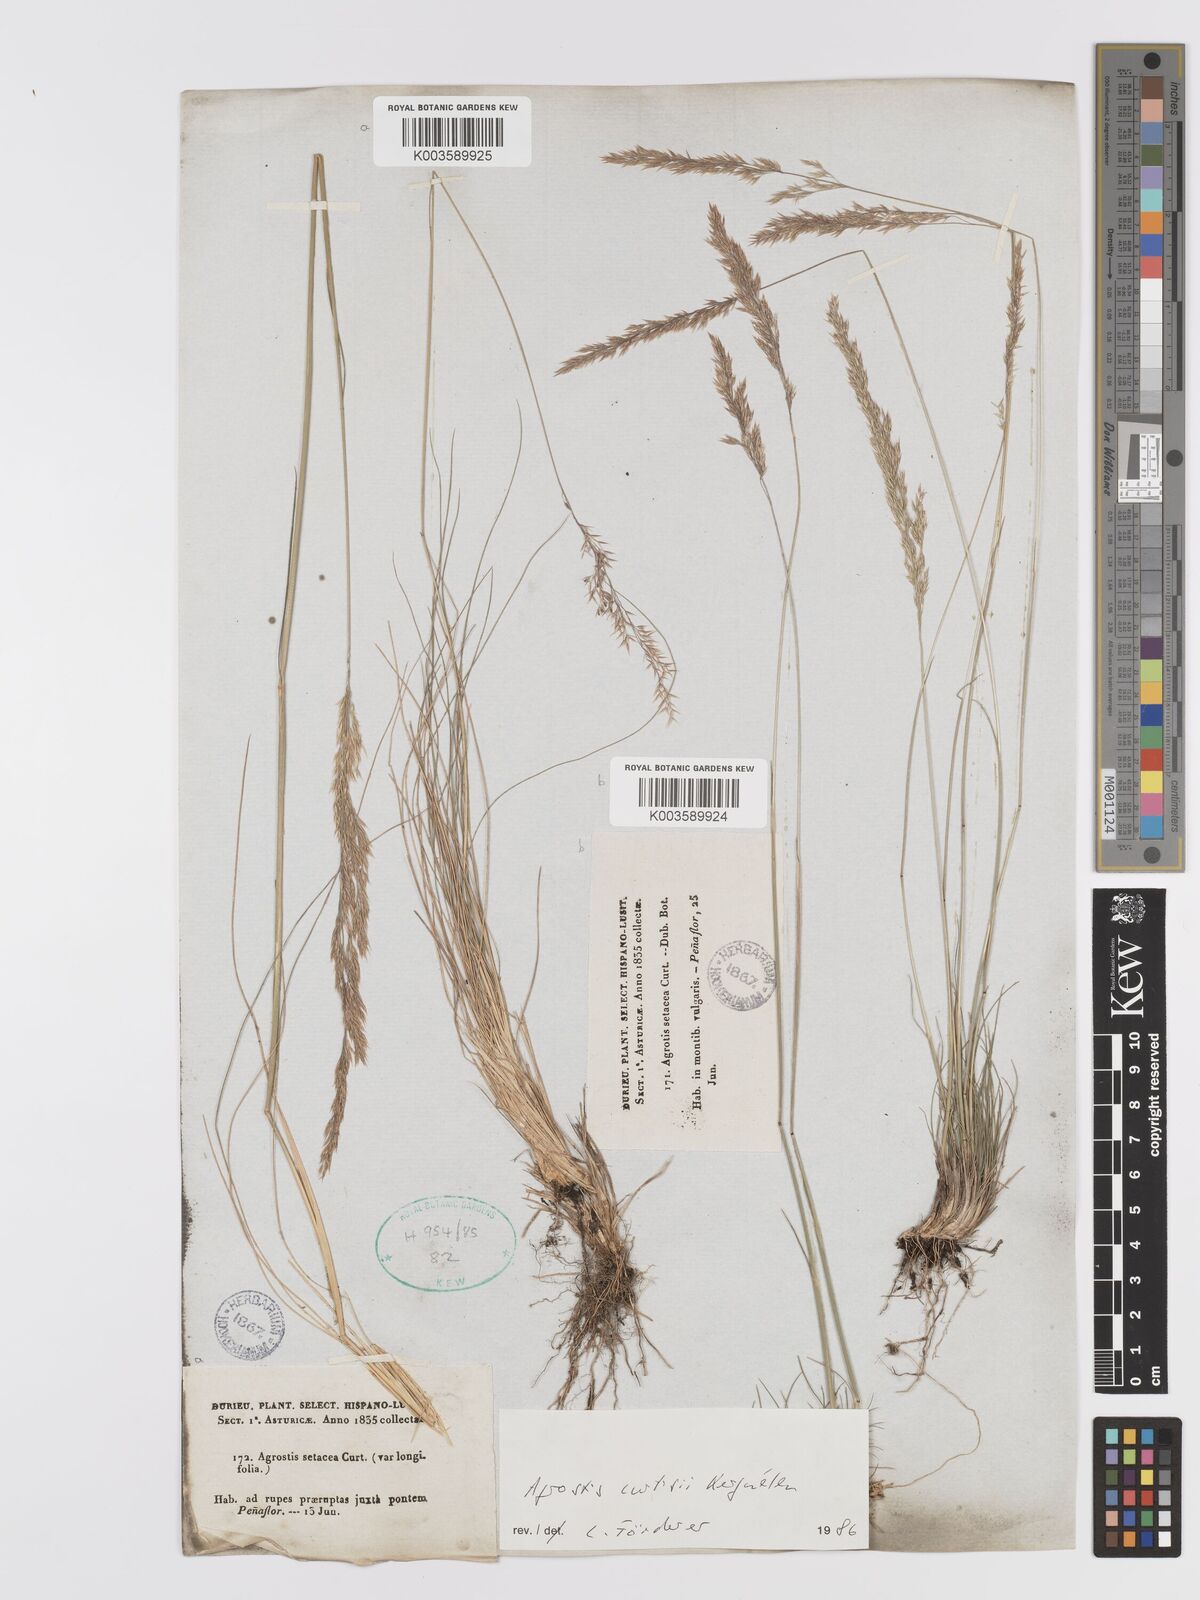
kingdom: Plantae
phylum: Tracheophyta
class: Liliopsida
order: Poales
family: Poaceae
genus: Alpagrostis
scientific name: Alpagrostis setacea
